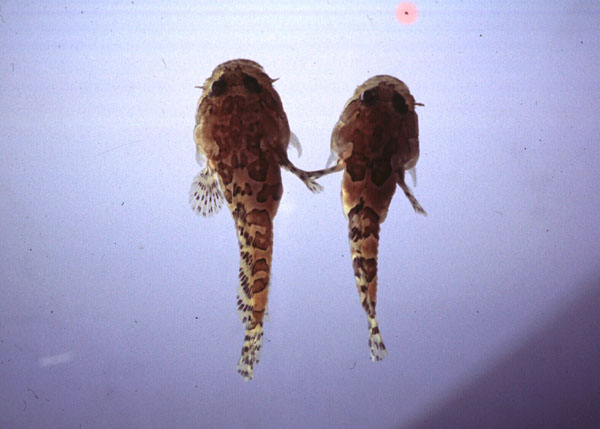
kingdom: Animalia
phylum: Chordata
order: Batrachoidiformes
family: Batrachoididae
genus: Batrichthys
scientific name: Batrichthys apiatus
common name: Snakehead toadfish
